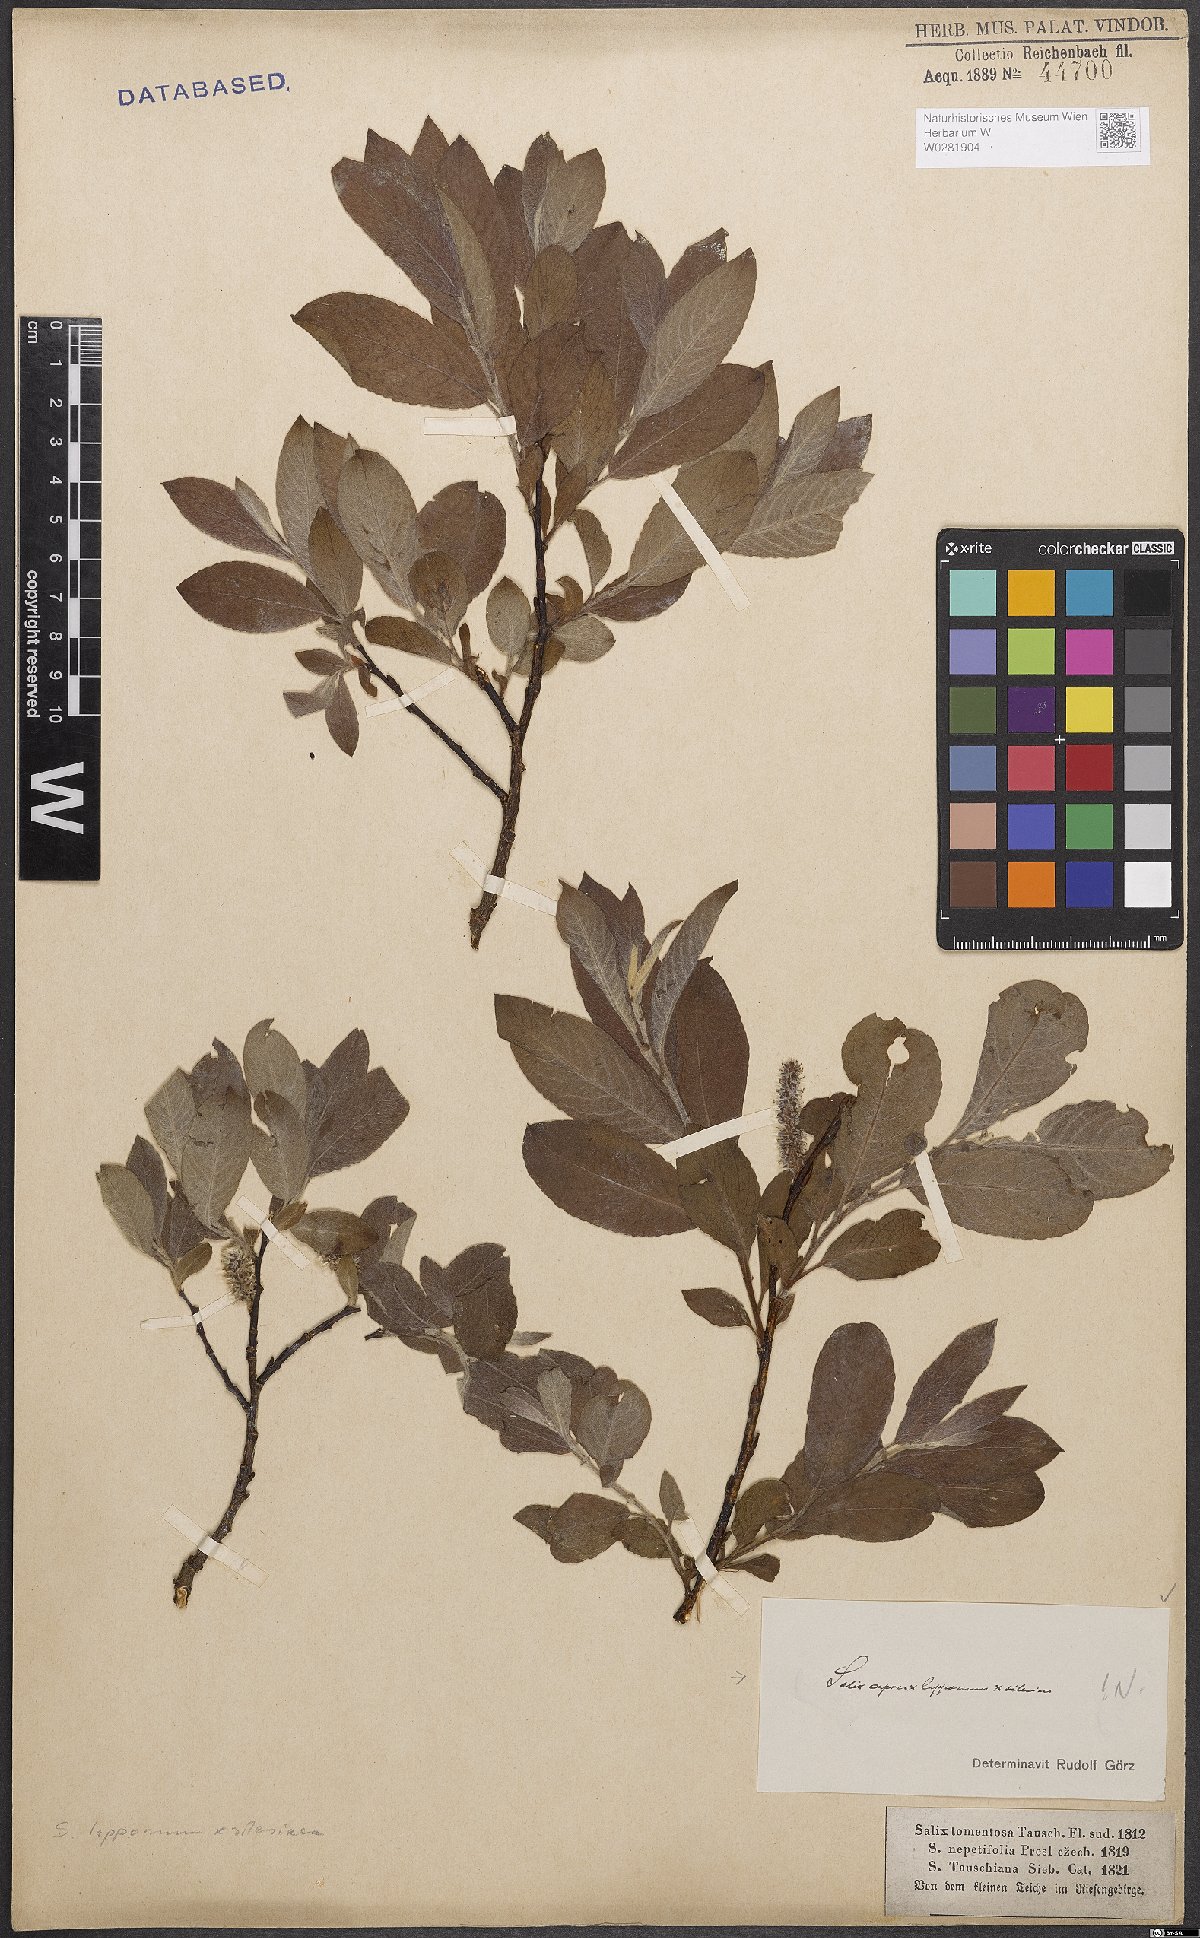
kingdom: Plantae
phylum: Tracheophyta
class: Magnoliopsida
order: Malpighiales
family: Salicaceae
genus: Salix
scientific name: Salix
